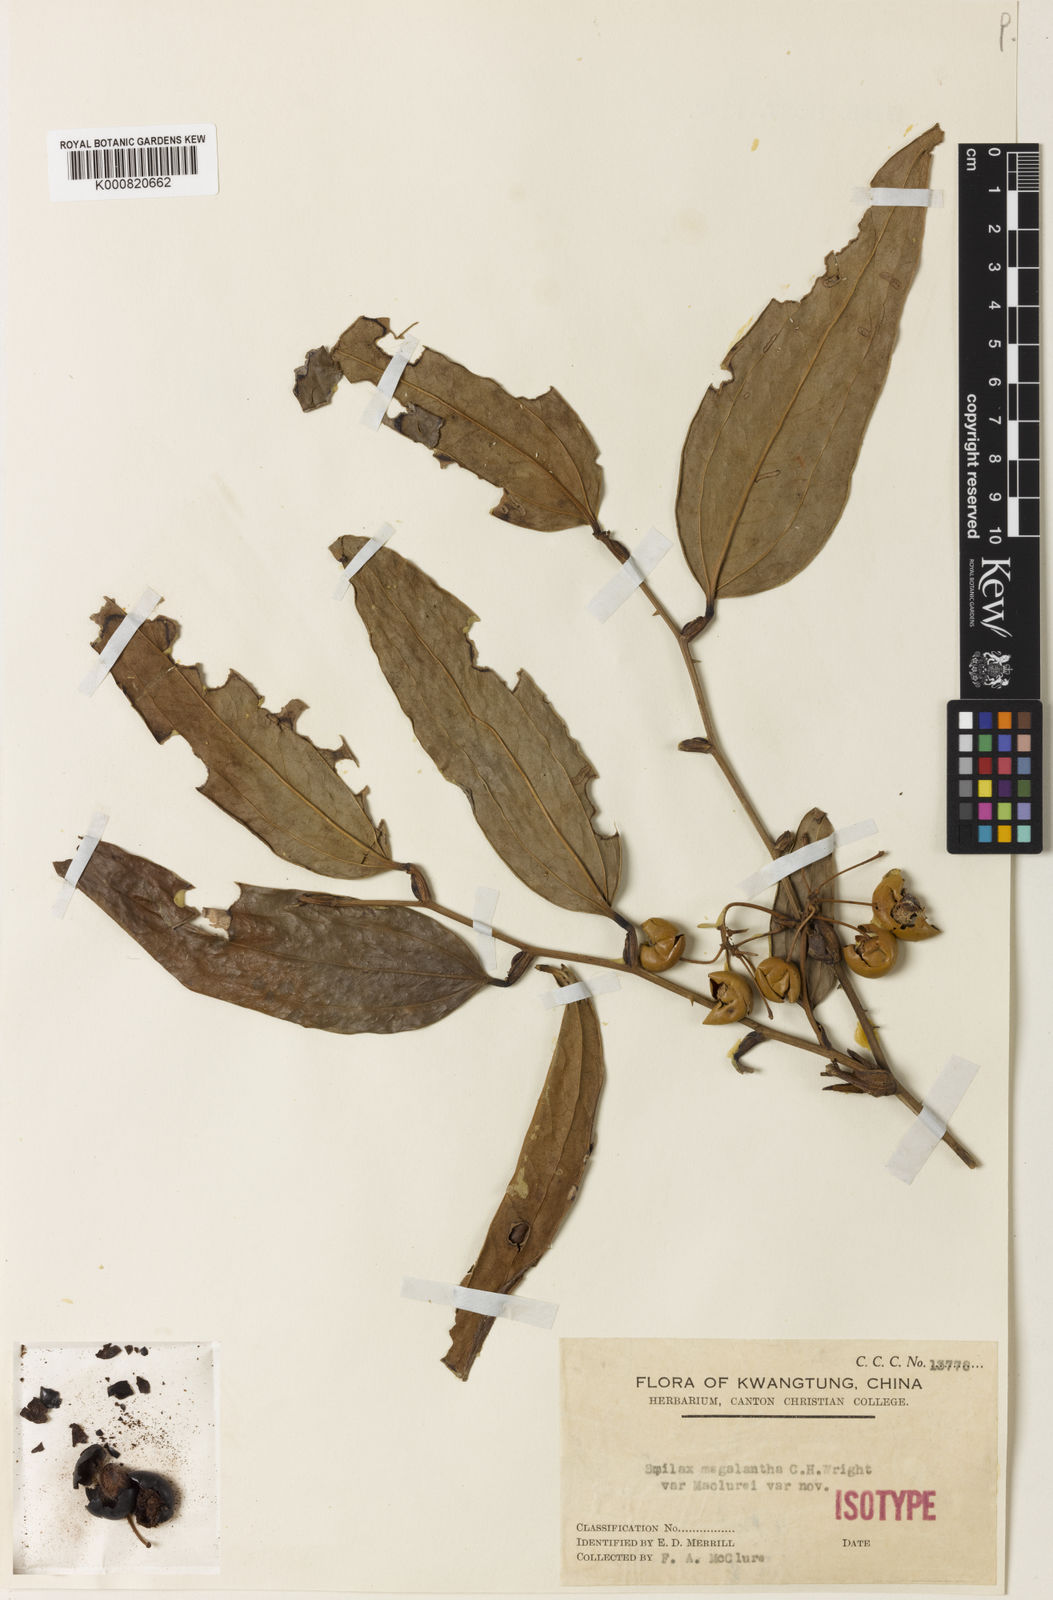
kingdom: Plantae
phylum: Tracheophyta
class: Liliopsida
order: Liliales
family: Smilacaceae
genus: Smilax
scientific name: Smilax chingii
